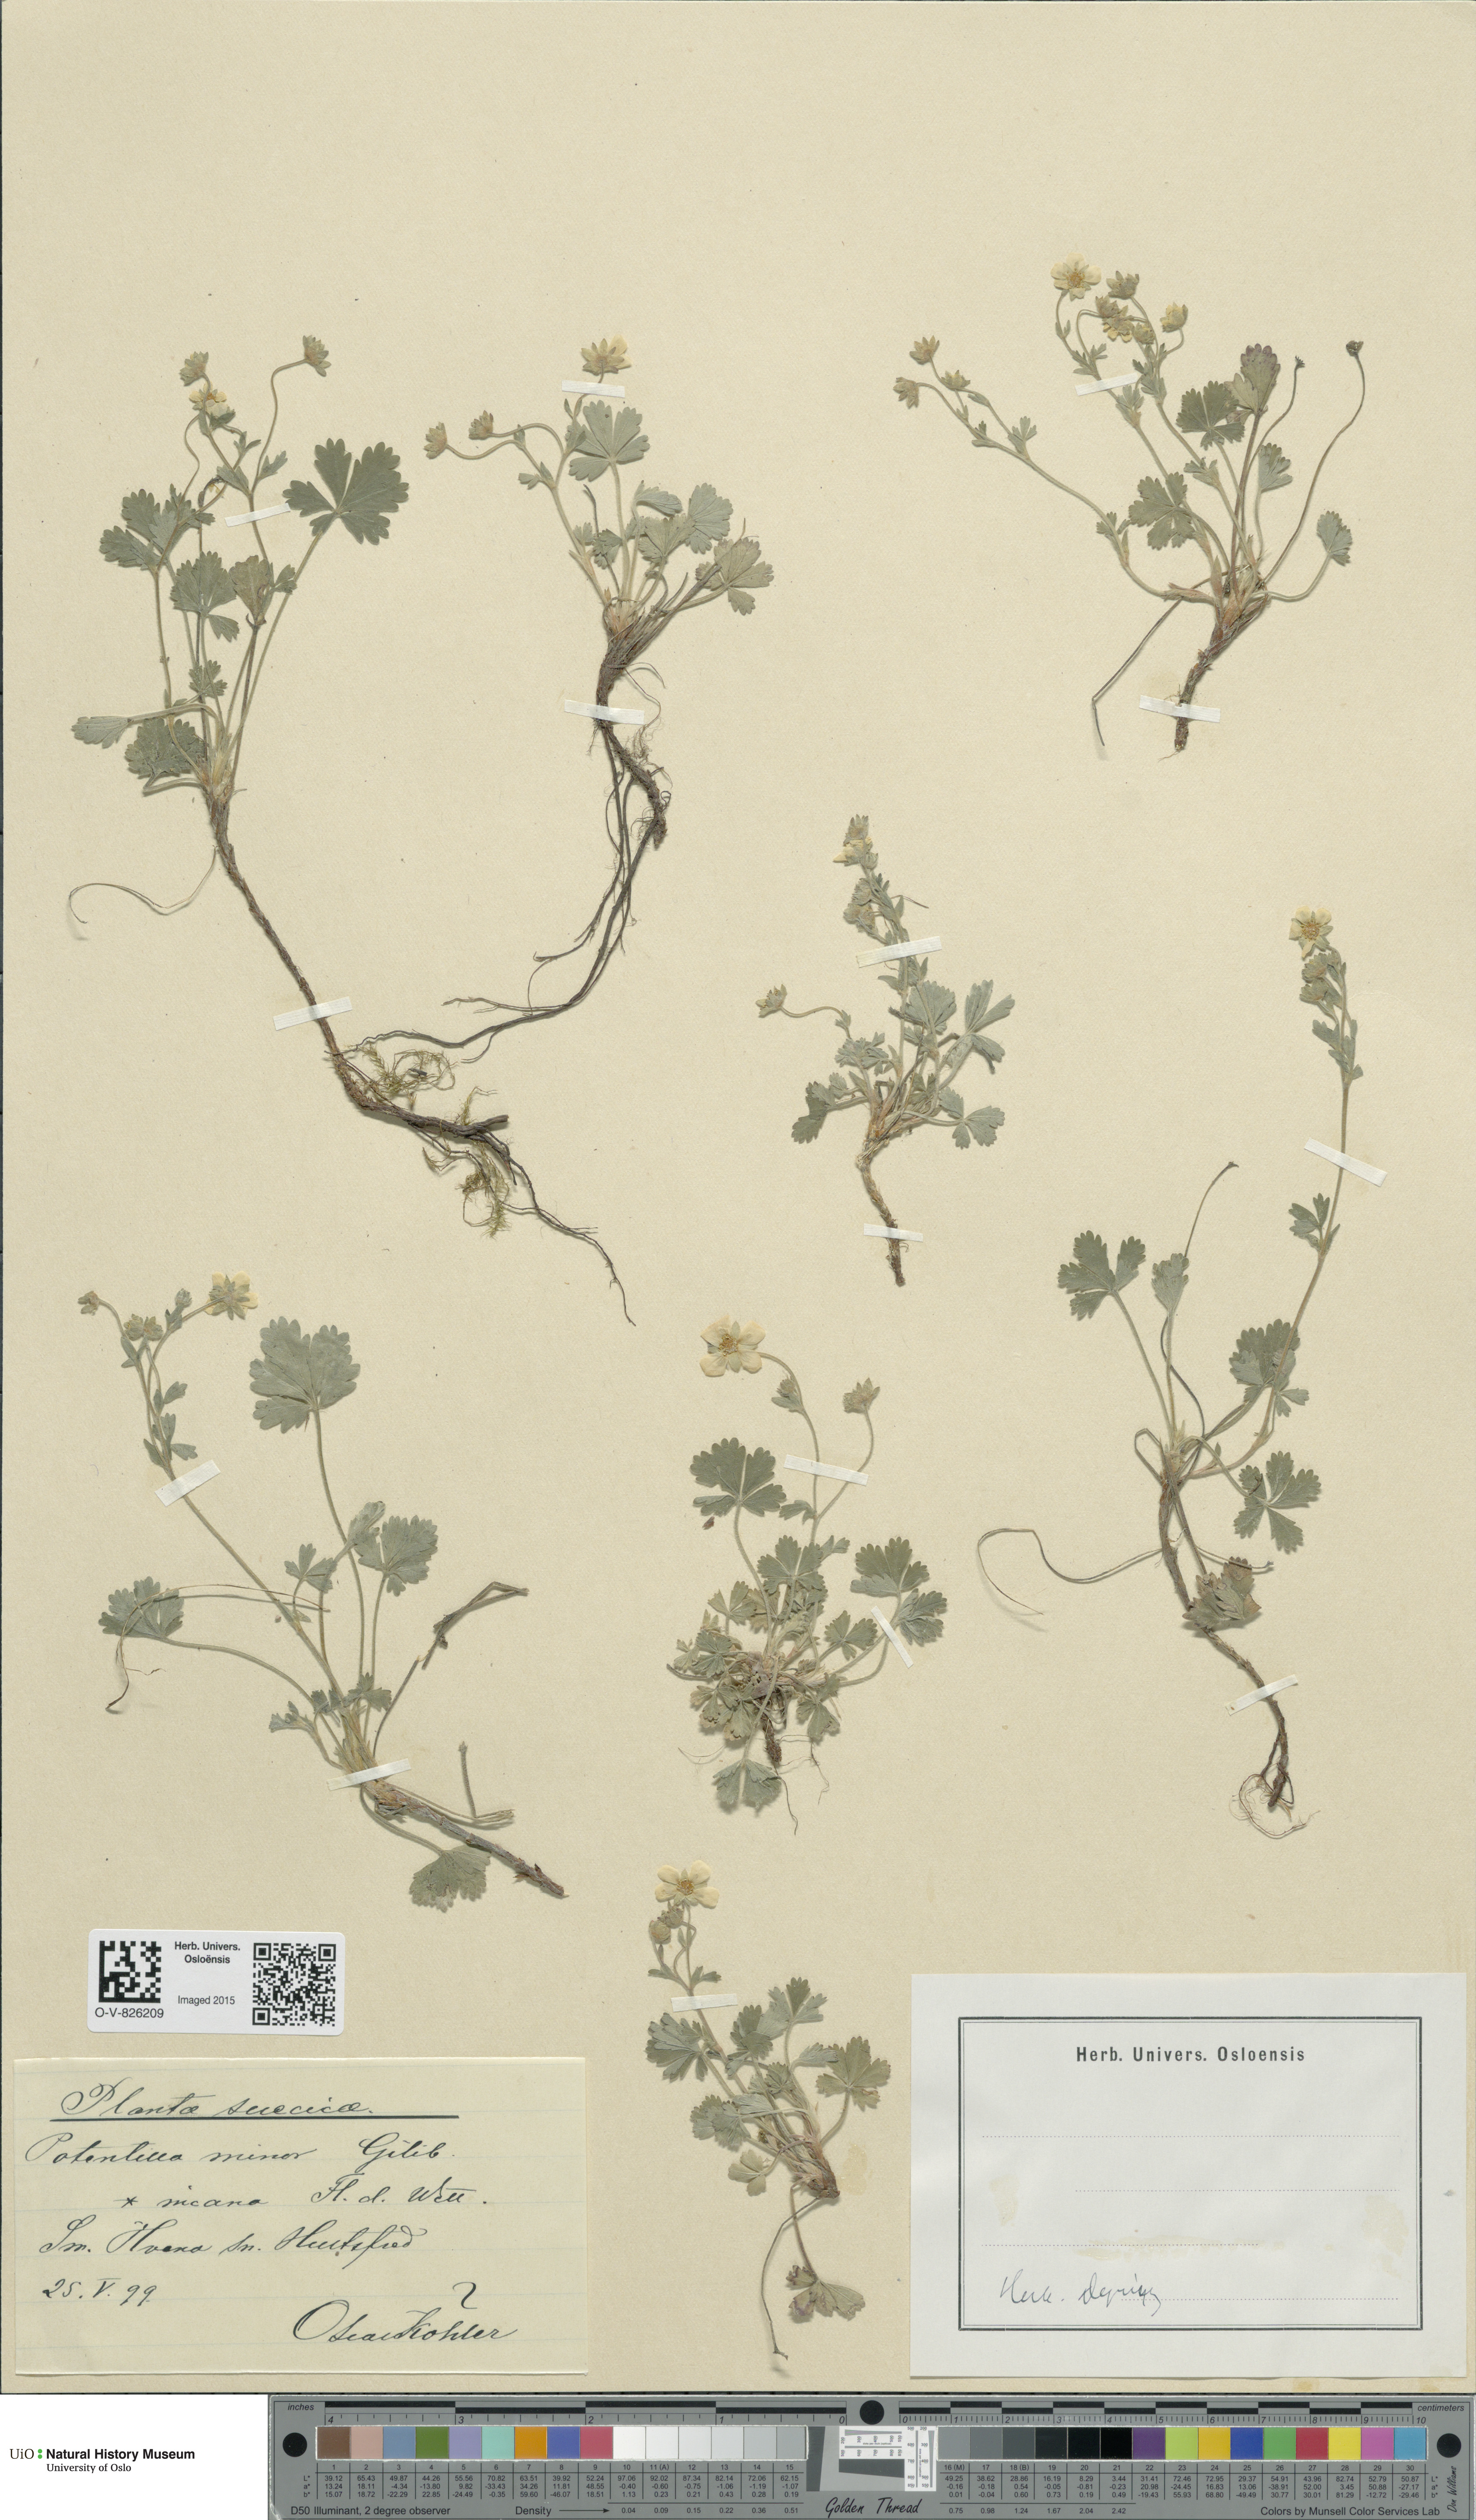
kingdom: Plantae
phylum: Tracheophyta
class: Magnoliopsida
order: Rosales
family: Rosaceae
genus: Potentilla
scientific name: Potentilla verna
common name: Spring cinquefoil
